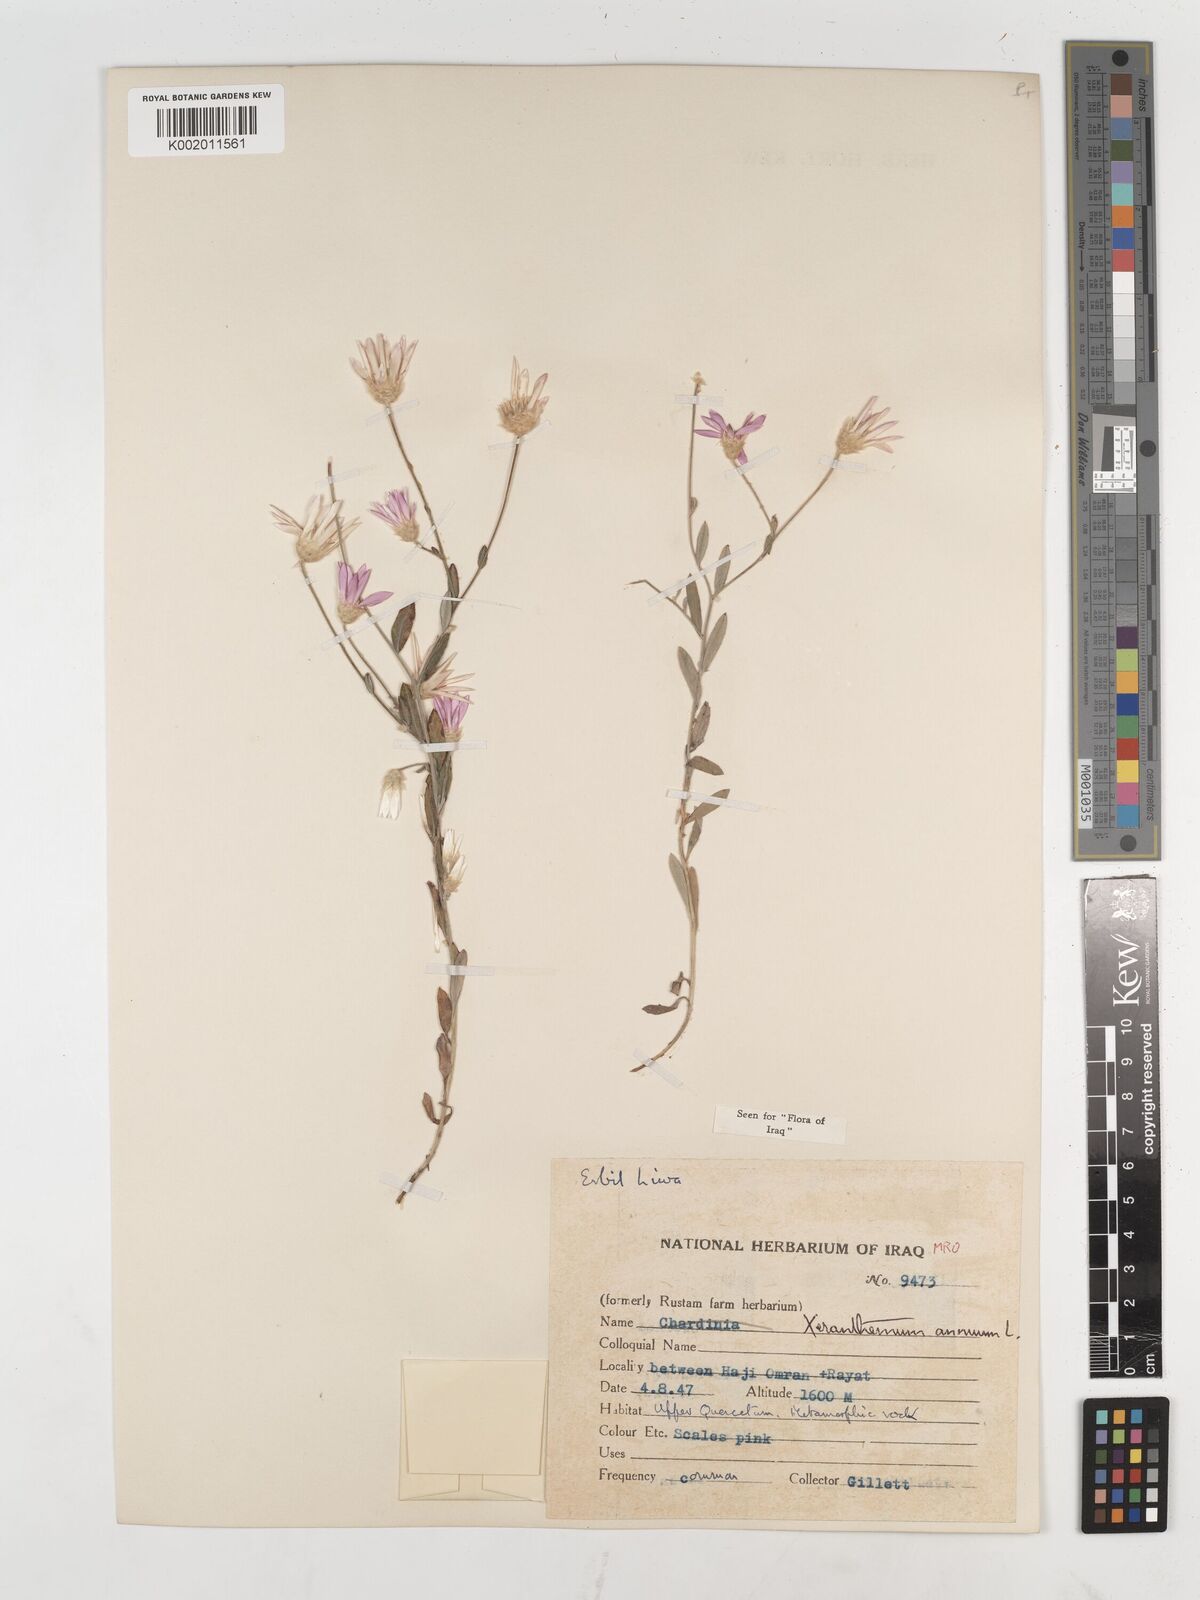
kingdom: Plantae
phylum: Tracheophyta
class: Magnoliopsida
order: Asterales
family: Asteraceae
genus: Xeranthemum
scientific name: Xeranthemum annuum
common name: Immortelle
